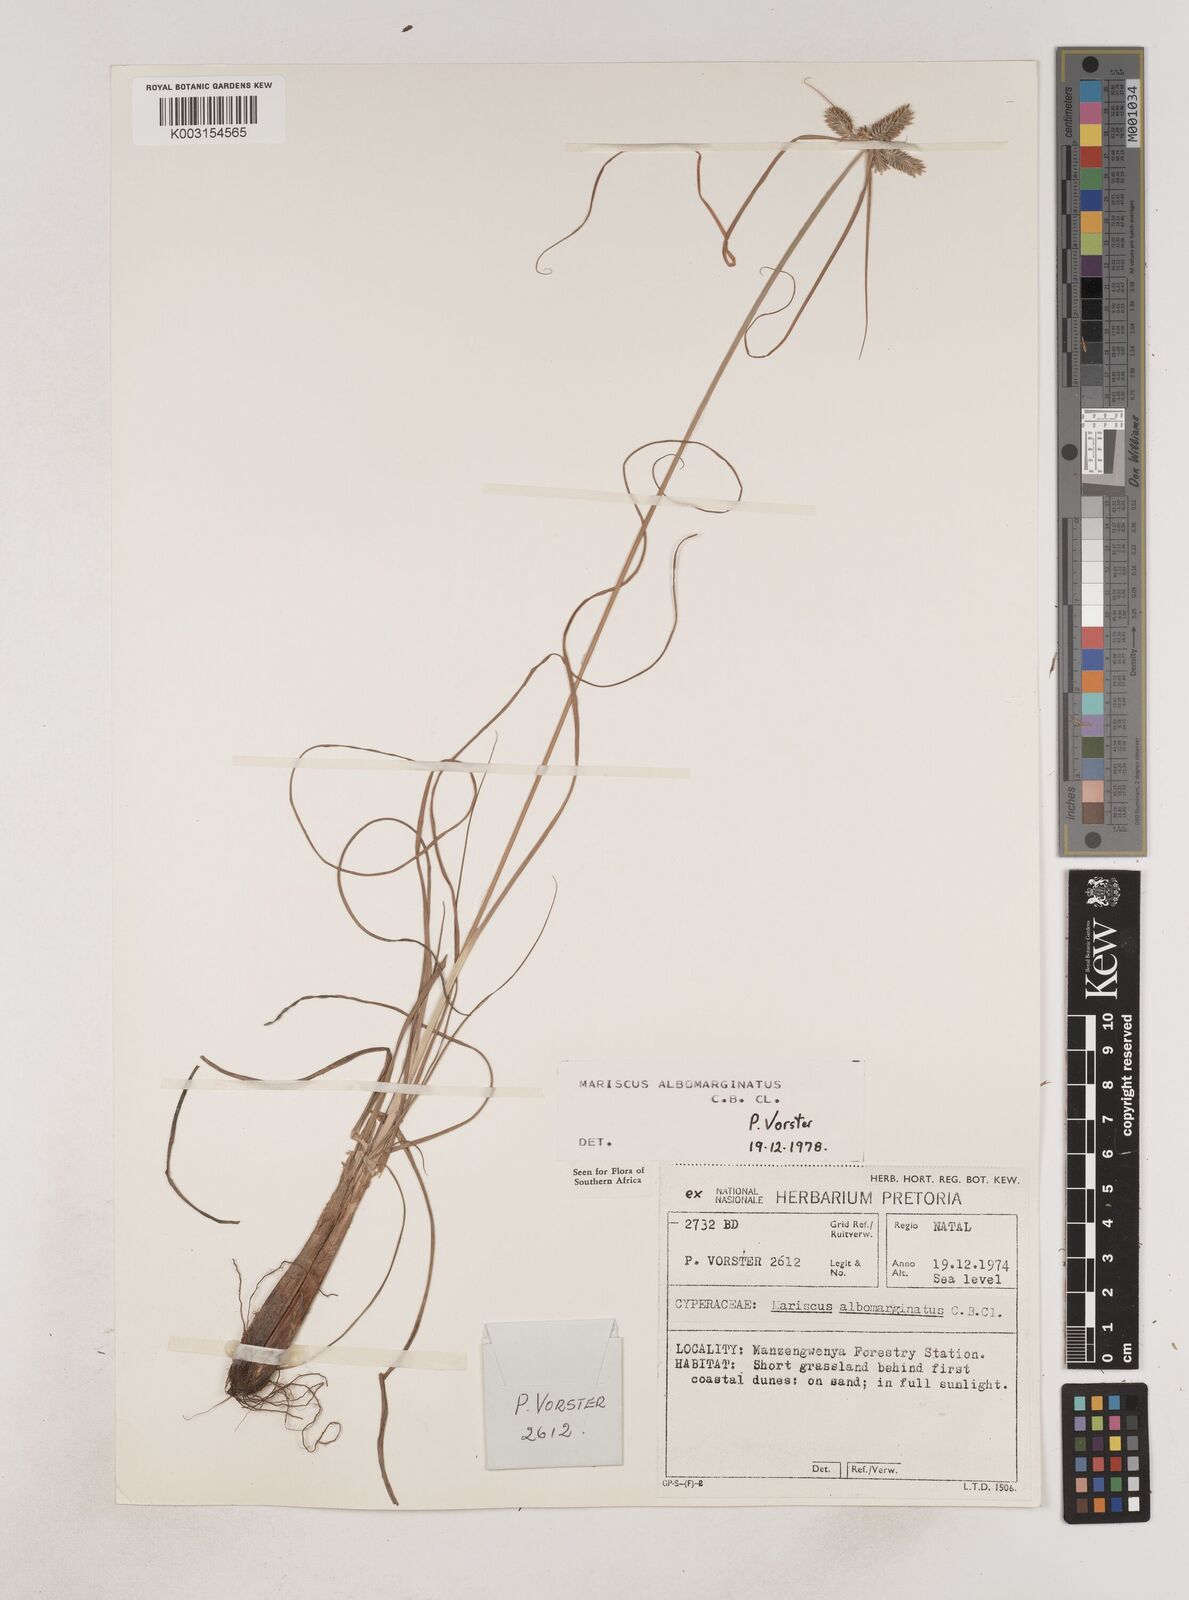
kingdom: Plantae
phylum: Tracheophyta
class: Liliopsida
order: Poales
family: Cyperaceae
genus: Cyperus
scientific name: Cyperus indecorus
